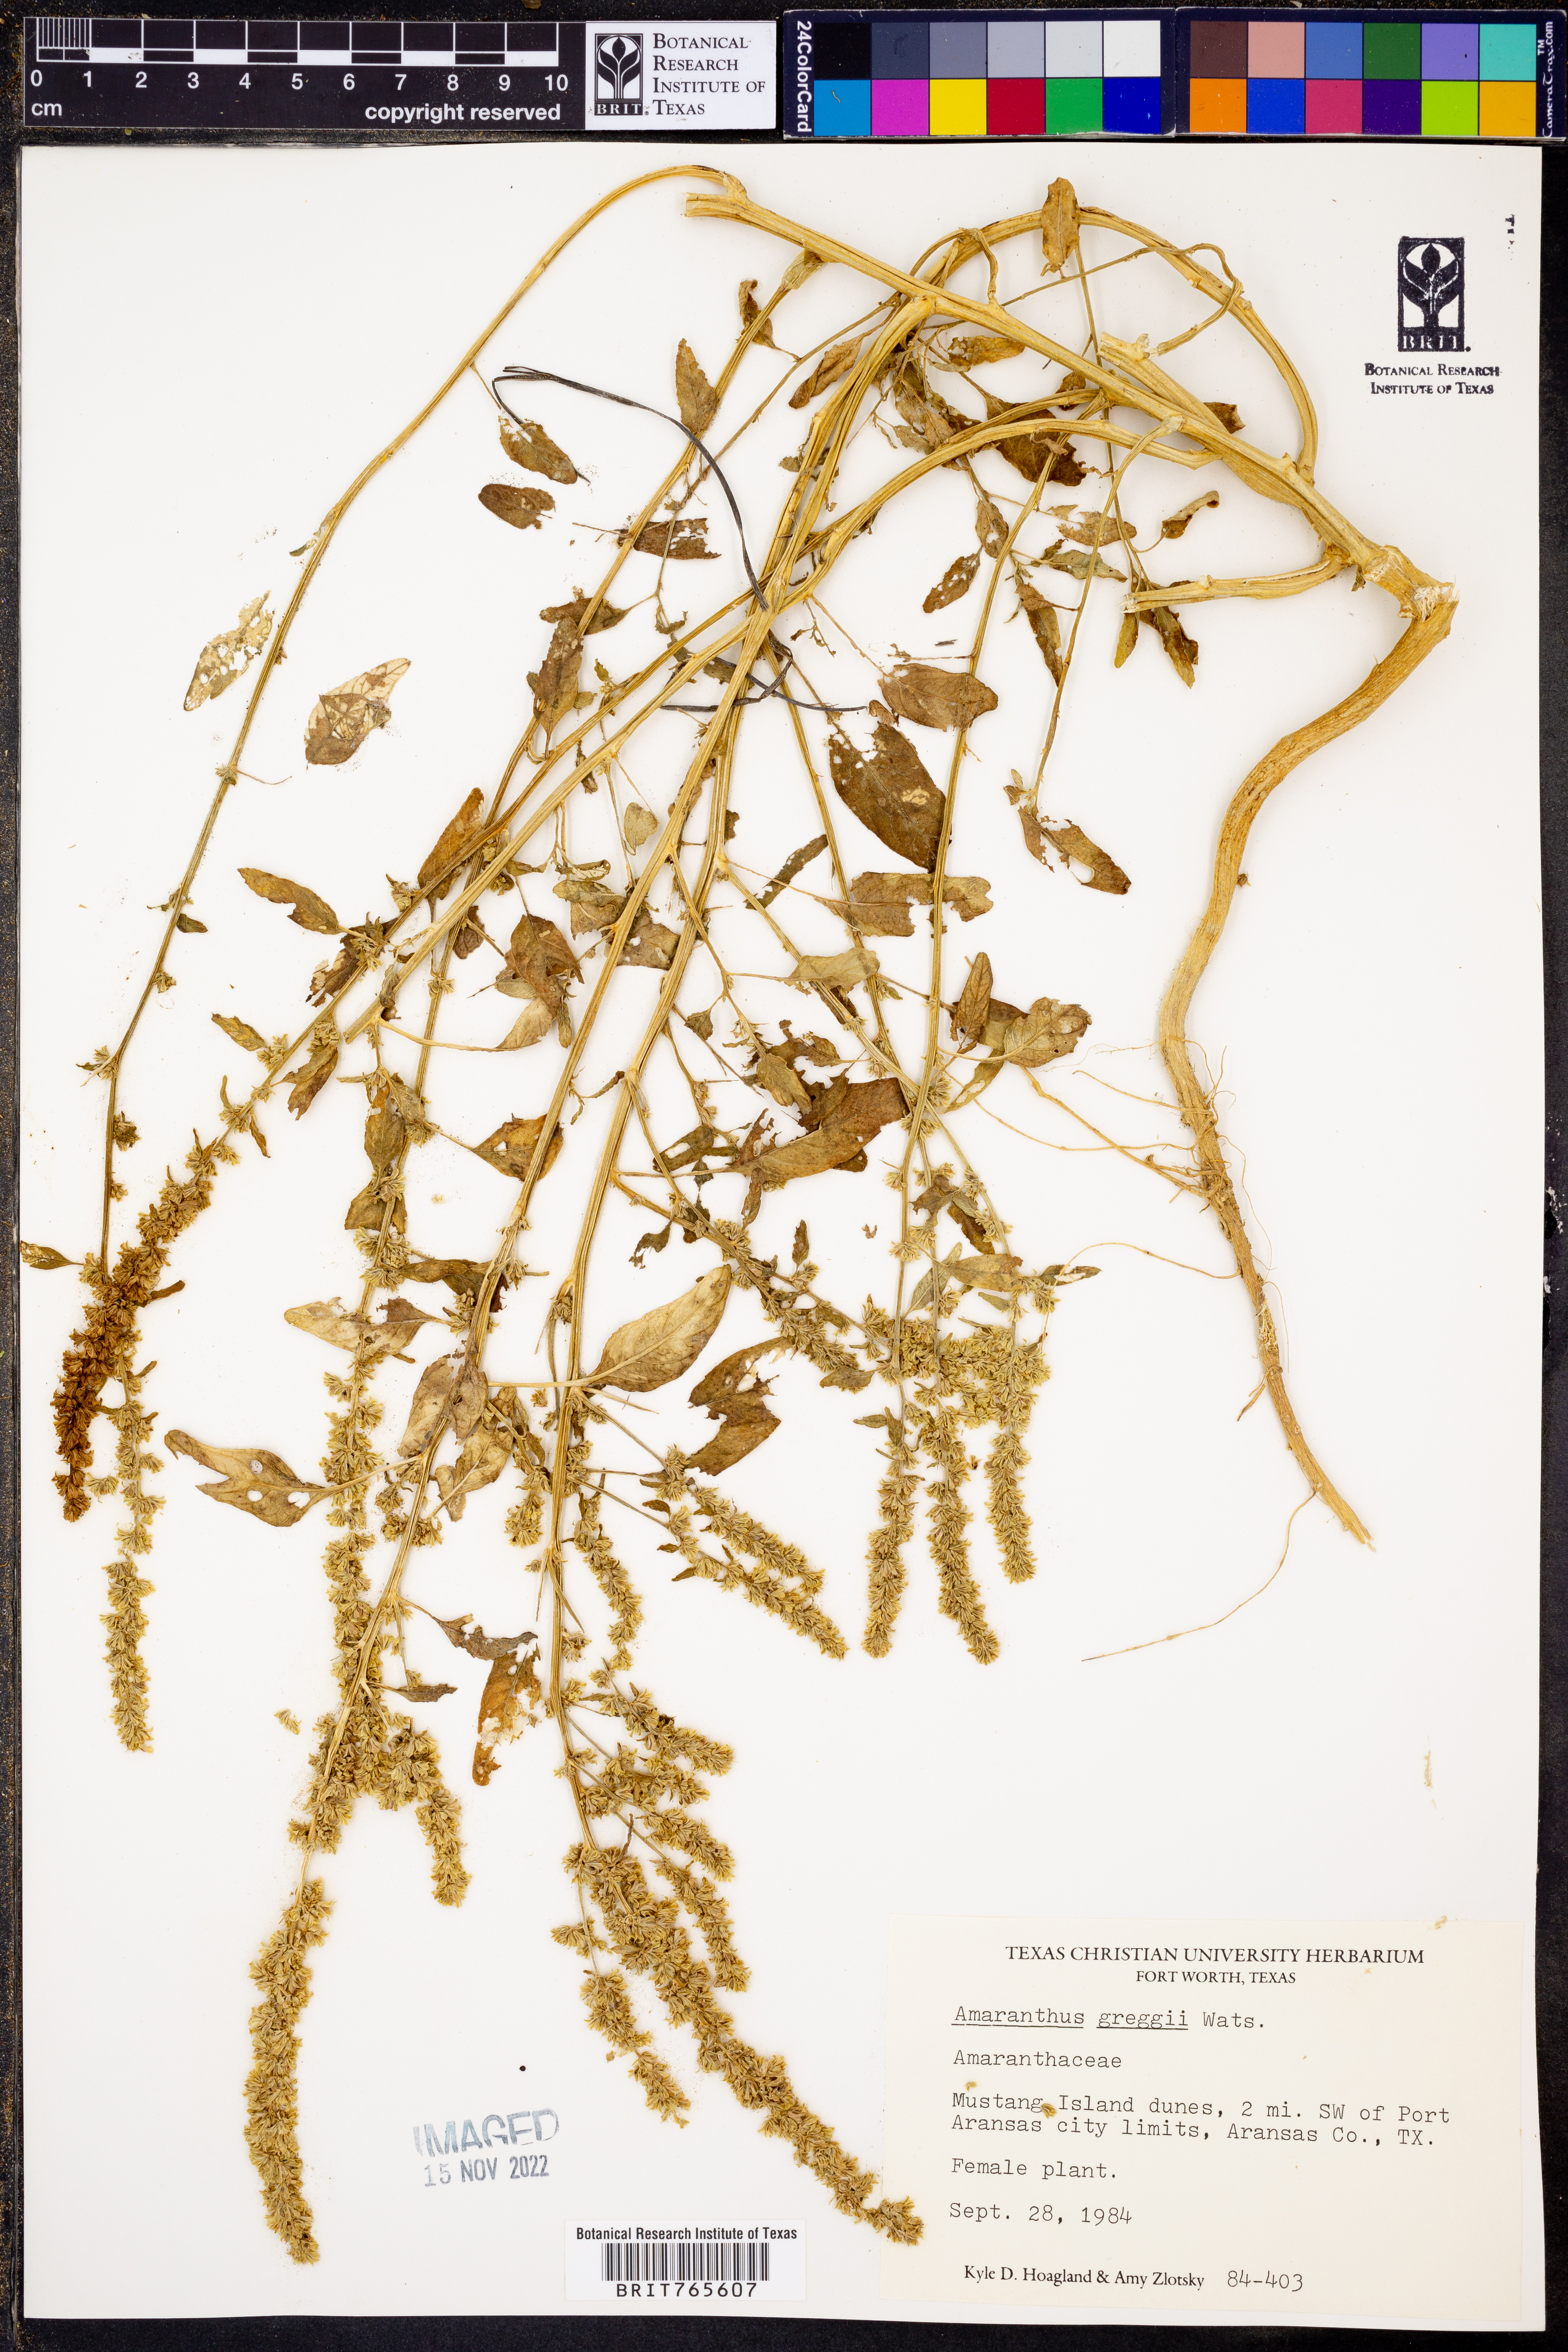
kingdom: Plantae
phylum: Tracheophyta
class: Magnoliopsida
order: Caryophyllales
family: Amaranthaceae
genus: Amaranthus
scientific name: Amaranthus greggii
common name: Josiah amaranth
